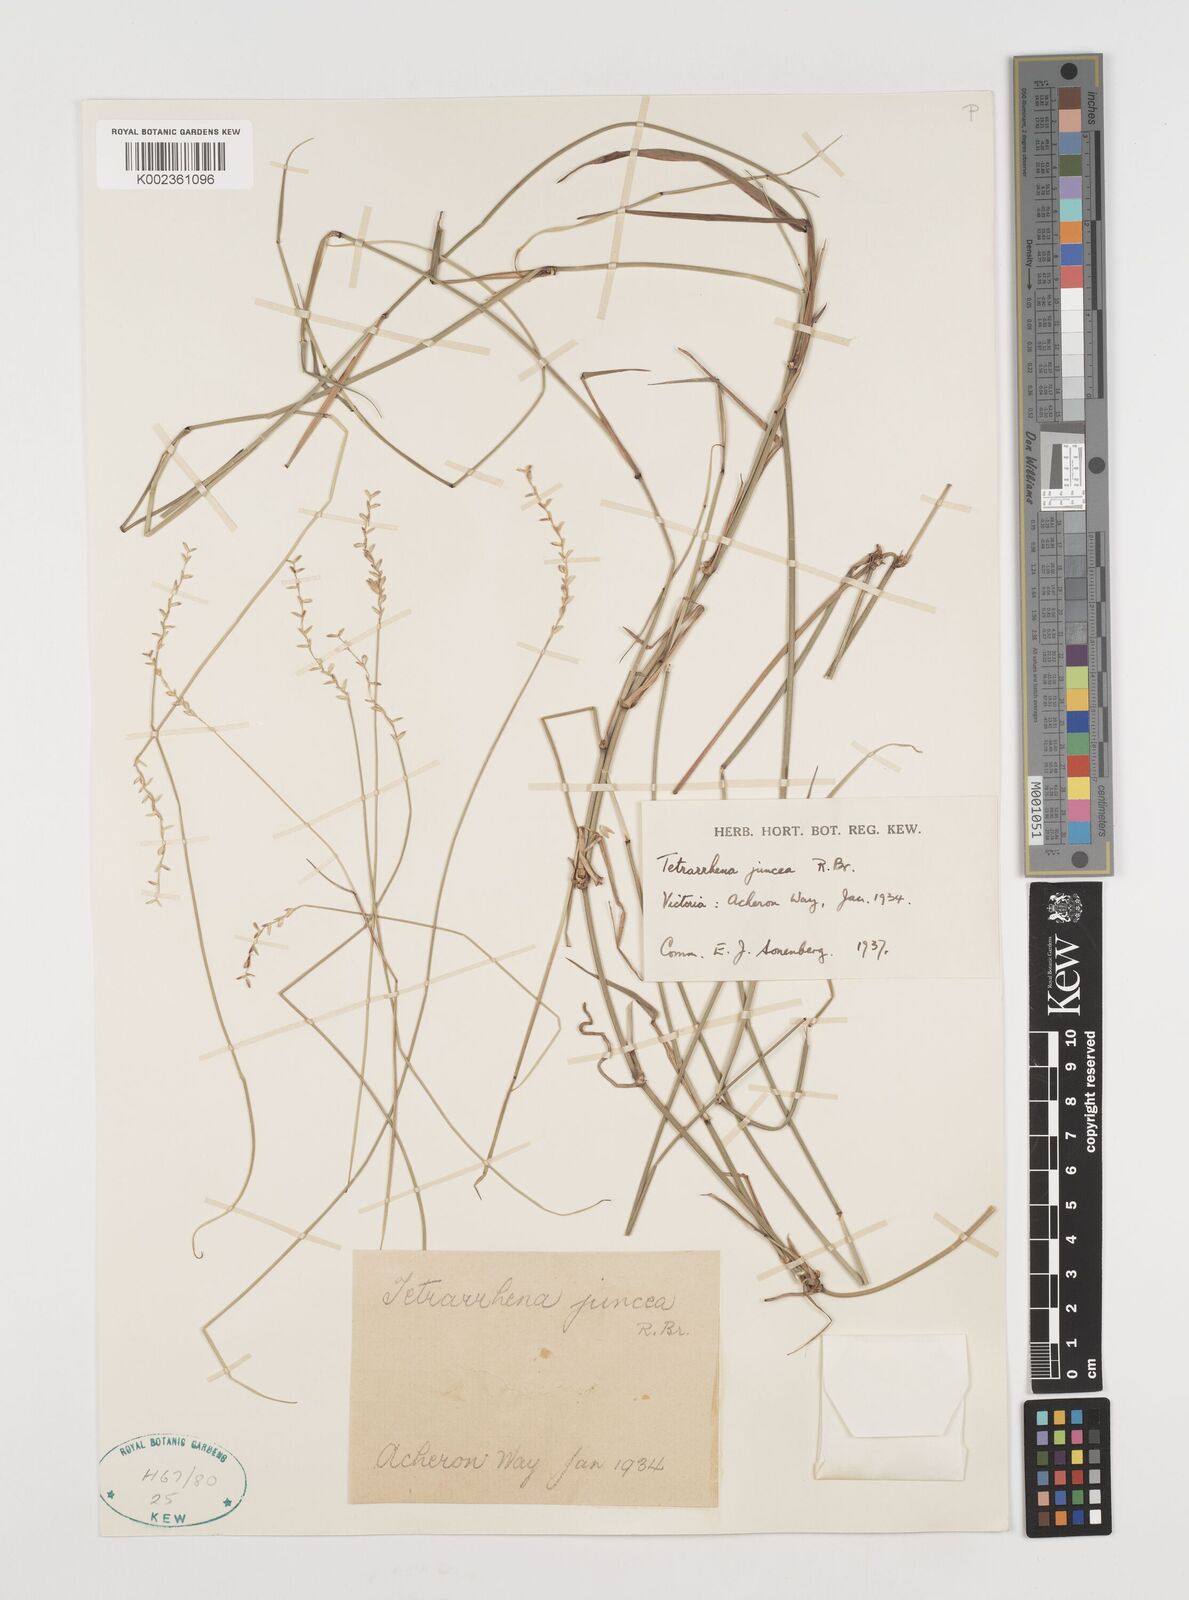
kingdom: Plantae
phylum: Tracheophyta
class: Liliopsida
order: Poales
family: Poaceae
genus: Tetrarrhena
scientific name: Tetrarrhena juncea
